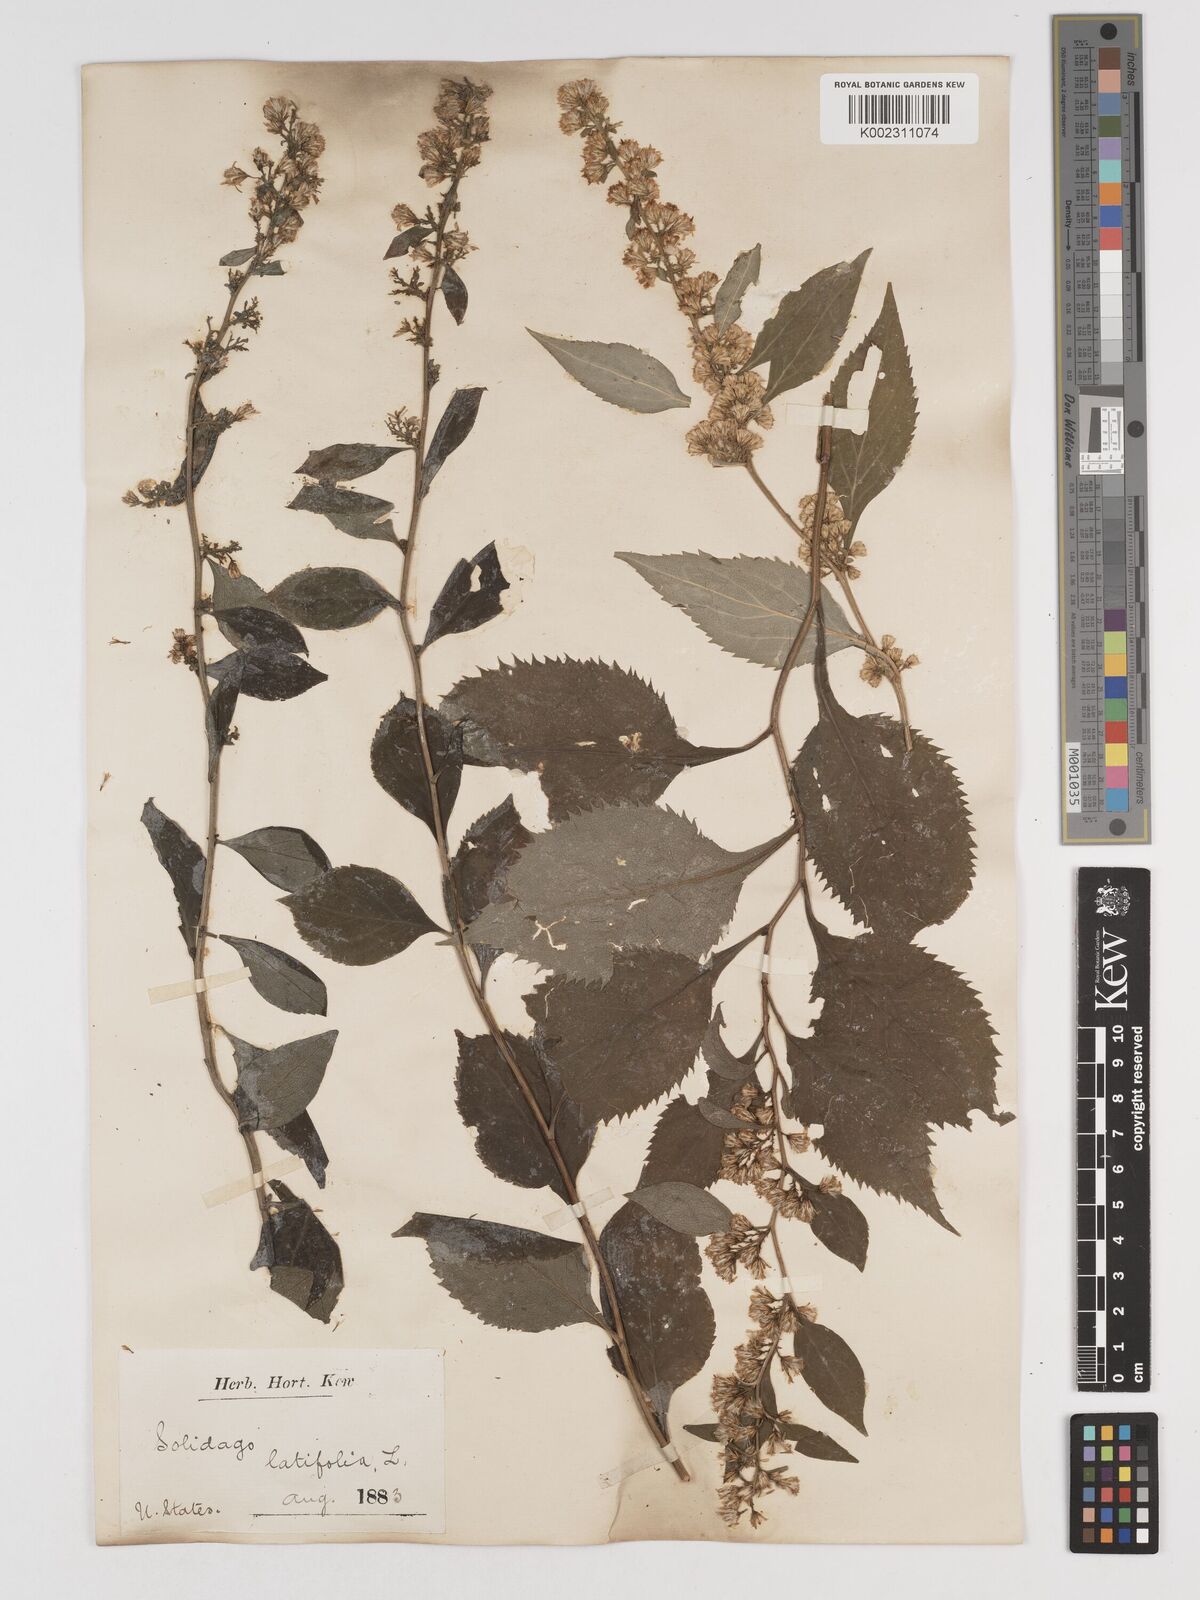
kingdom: Plantae
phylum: Tracheophyta
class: Magnoliopsida
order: Asterales
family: Asteraceae
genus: Solidago
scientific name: Solidago flexicaulis
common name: Zig-zag goldenrod
